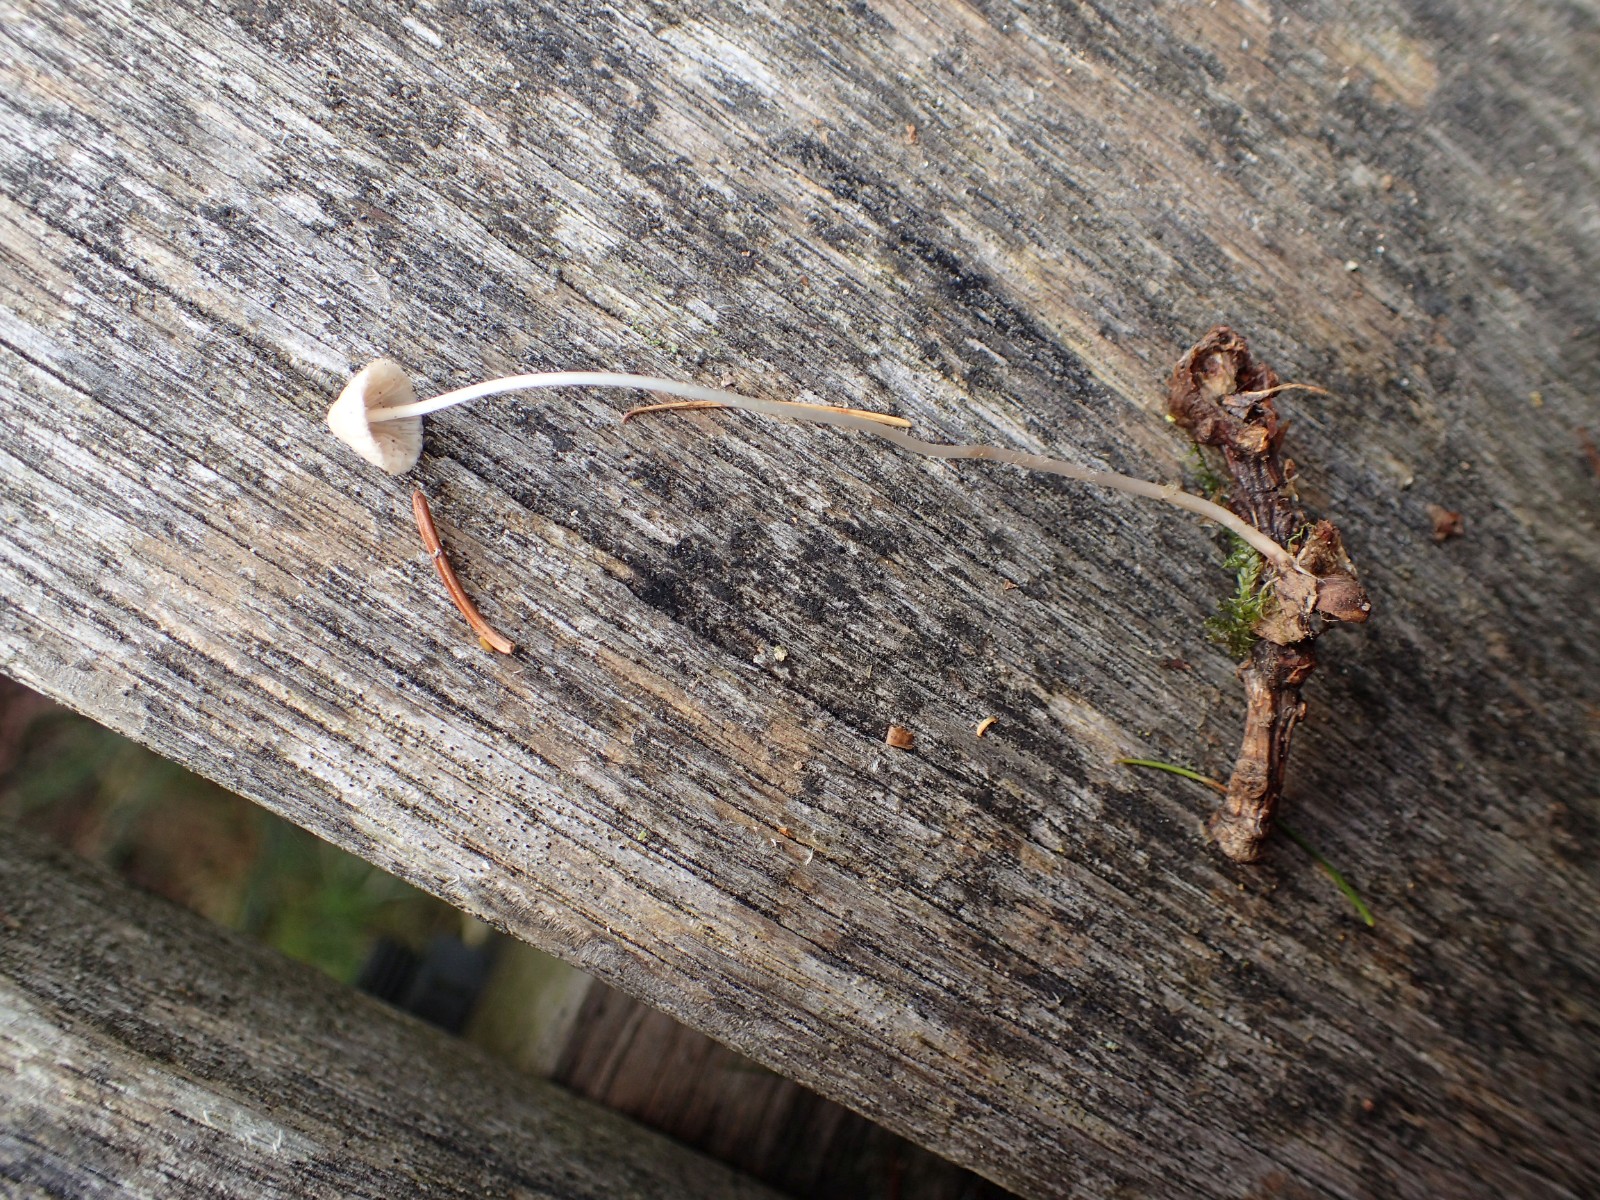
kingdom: Fungi
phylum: Basidiomycota
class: Agaricomycetes
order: Agaricales
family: Mycenaceae
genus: Mycena
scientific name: Mycena
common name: huesvamp
